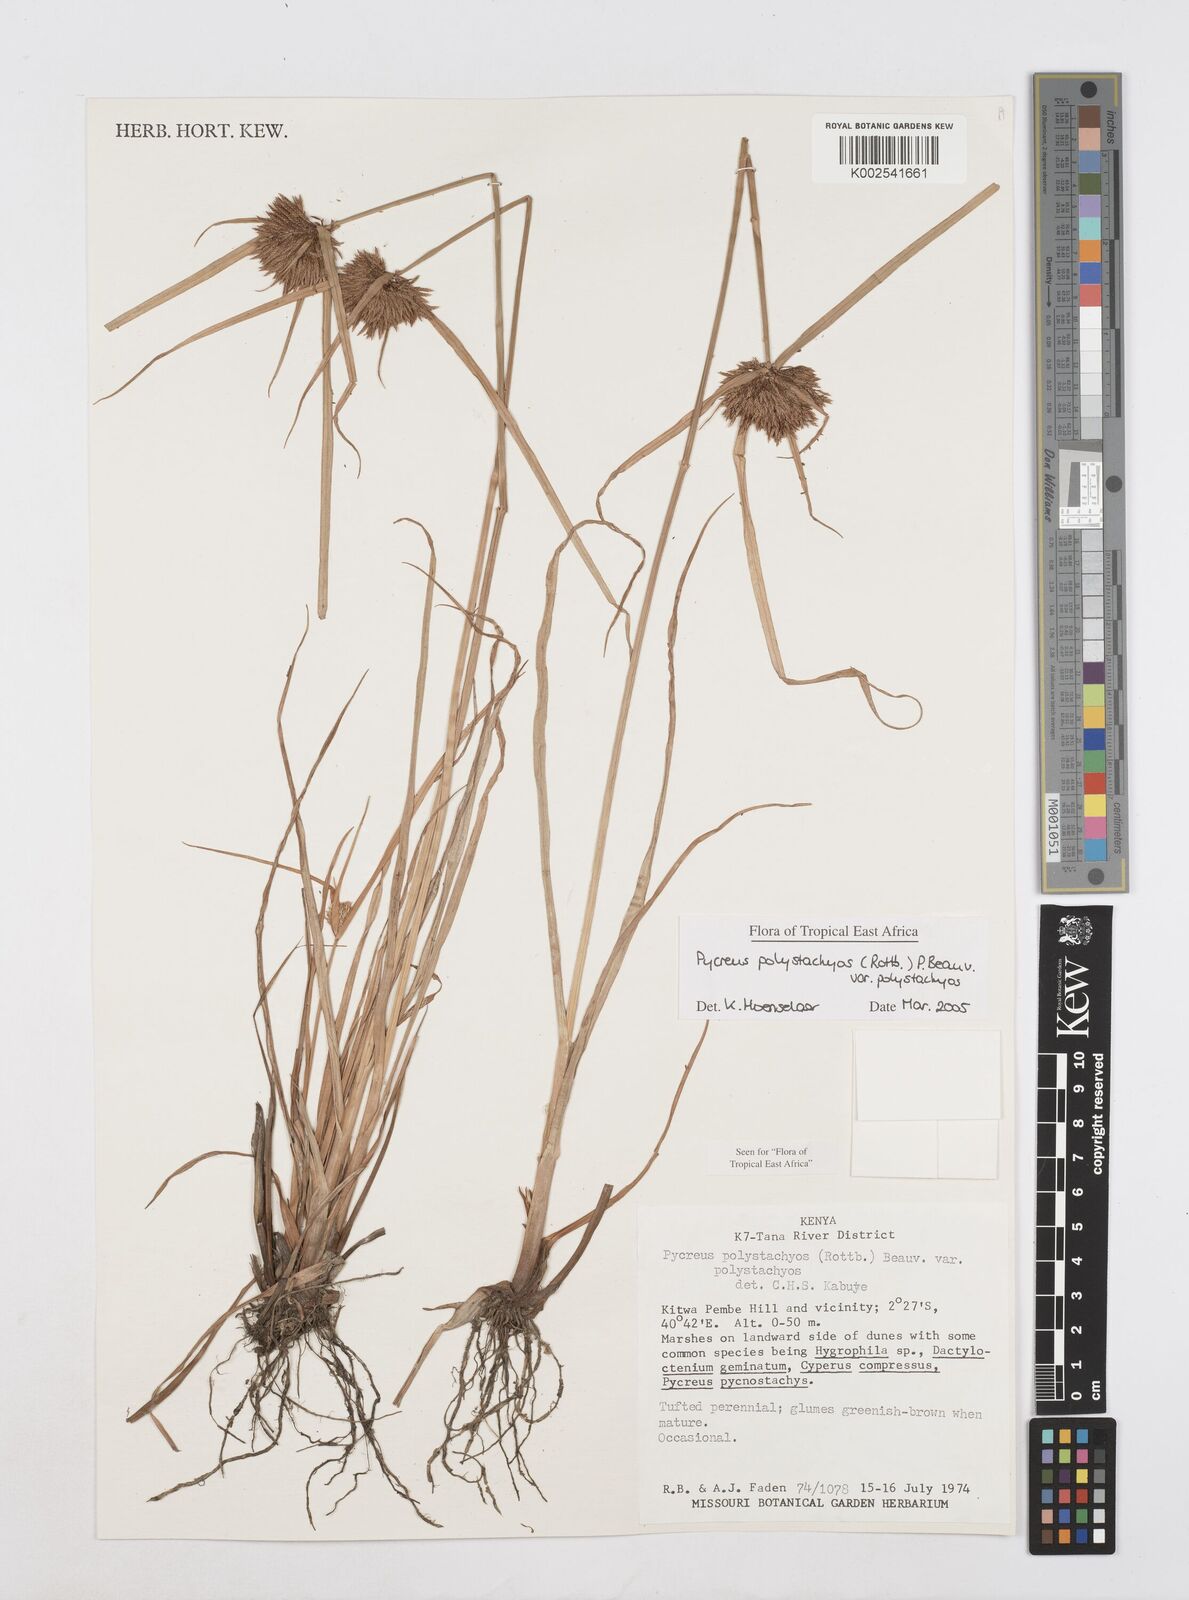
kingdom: Plantae
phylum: Tracheophyta
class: Liliopsida
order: Poales
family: Cyperaceae
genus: Cyperus
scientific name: Cyperus polystachyos
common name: Bunchy flat sedge
